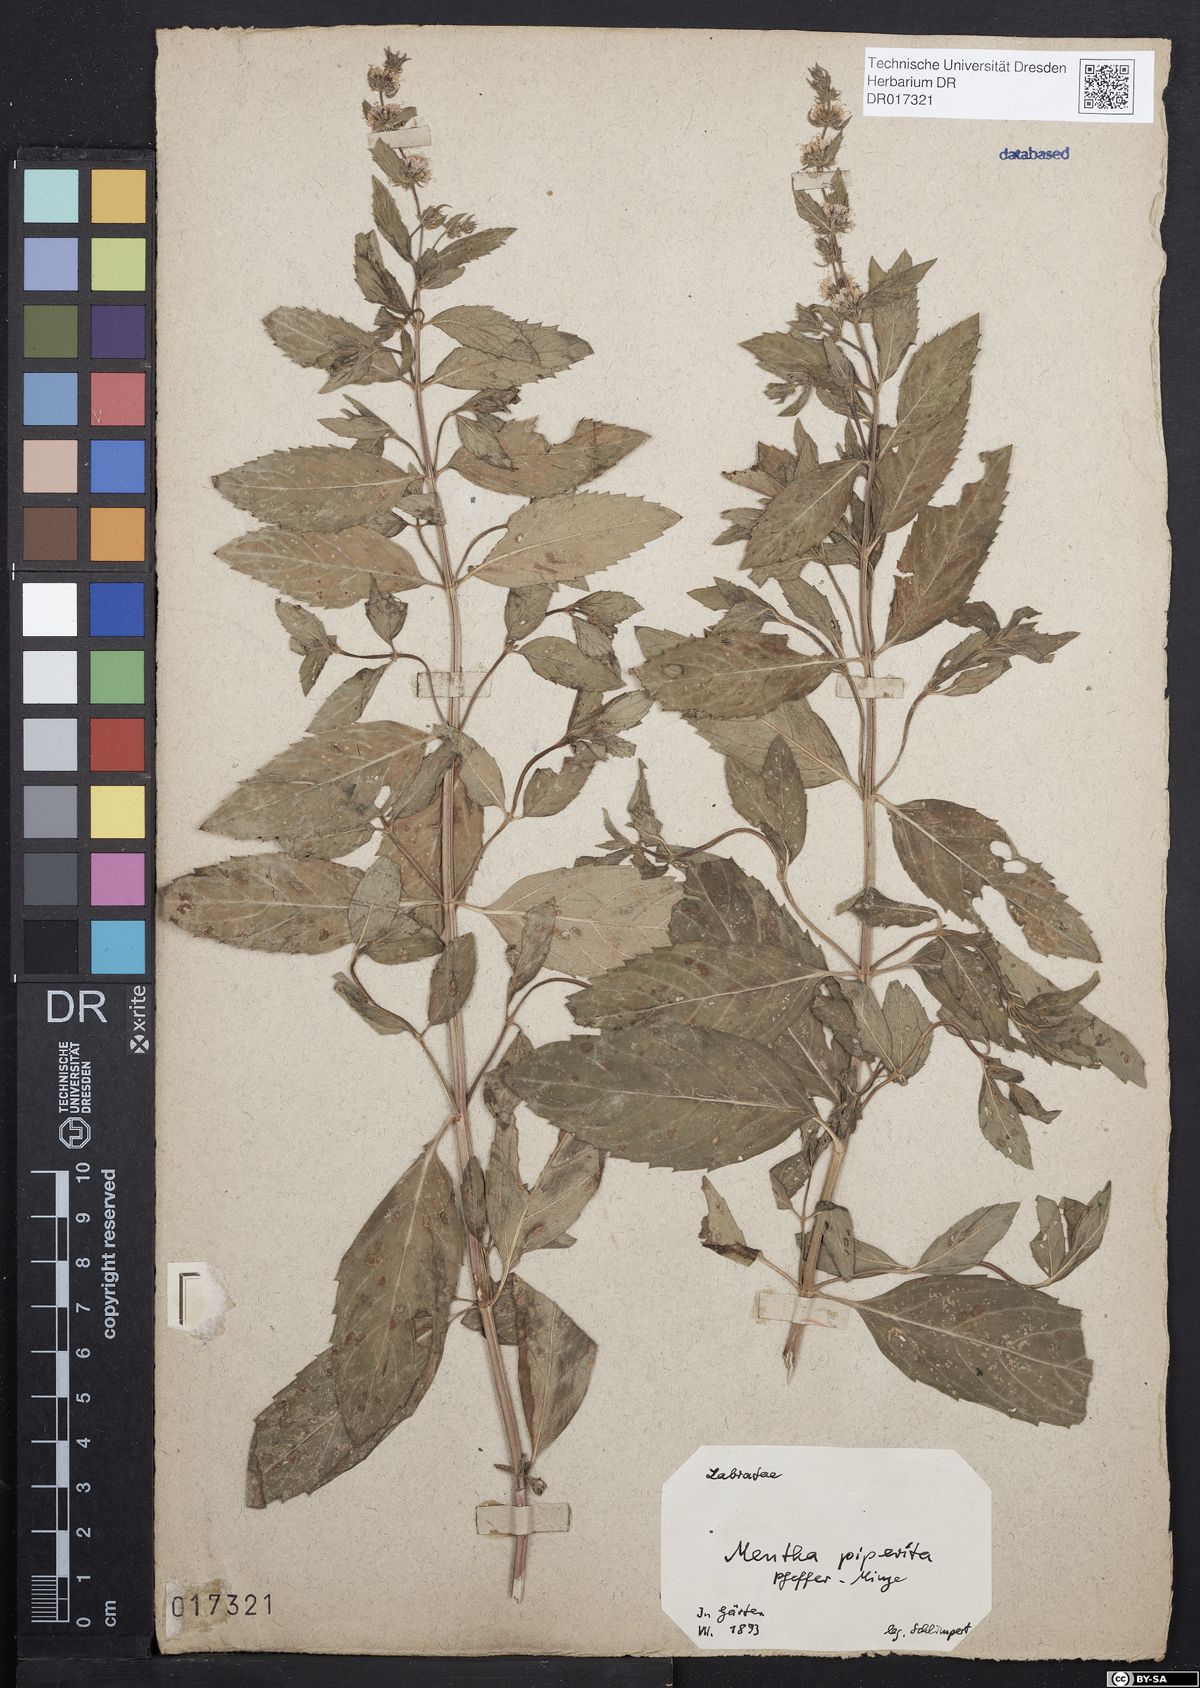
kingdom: Plantae
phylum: Tracheophyta
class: Magnoliopsida
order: Lamiales
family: Lamiaceae
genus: Mentha
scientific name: Mentha piperita
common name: Peppermint
